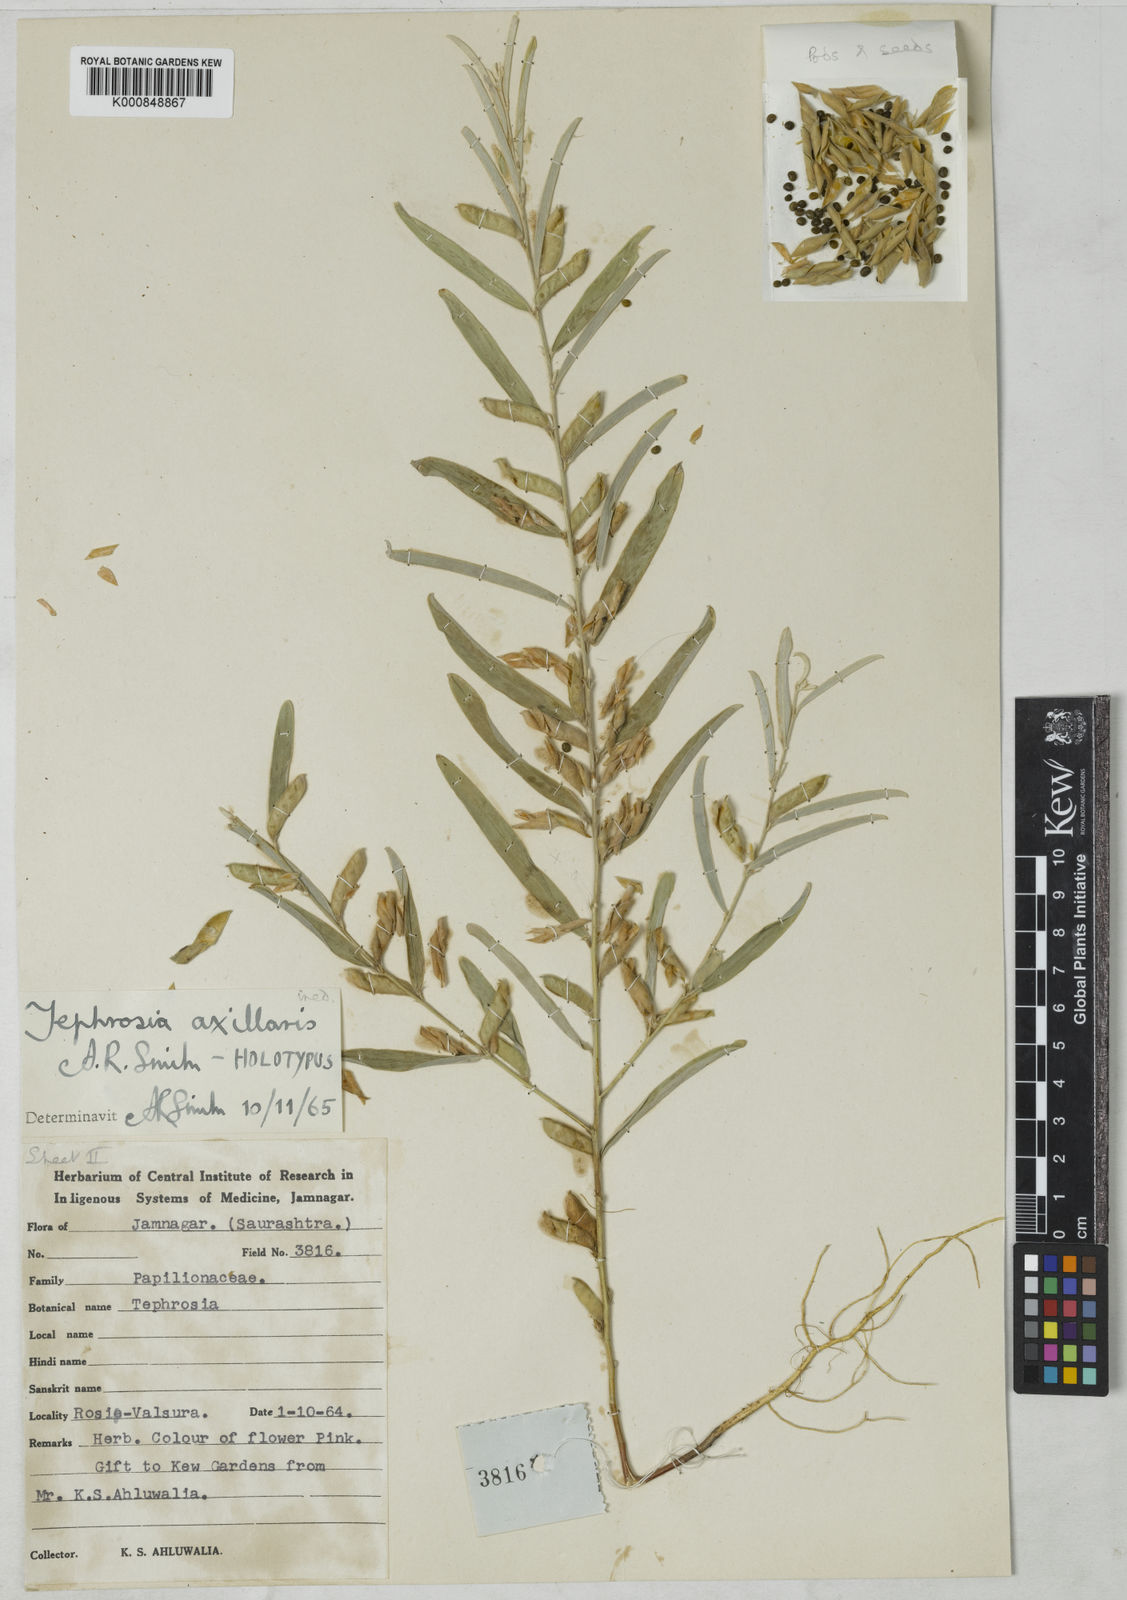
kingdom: Plantae
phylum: Tracheophyta
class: Magnoliopsida
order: Fabales
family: Fabaceae
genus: Tephrosia
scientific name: Tephrosia jamnagarensis
